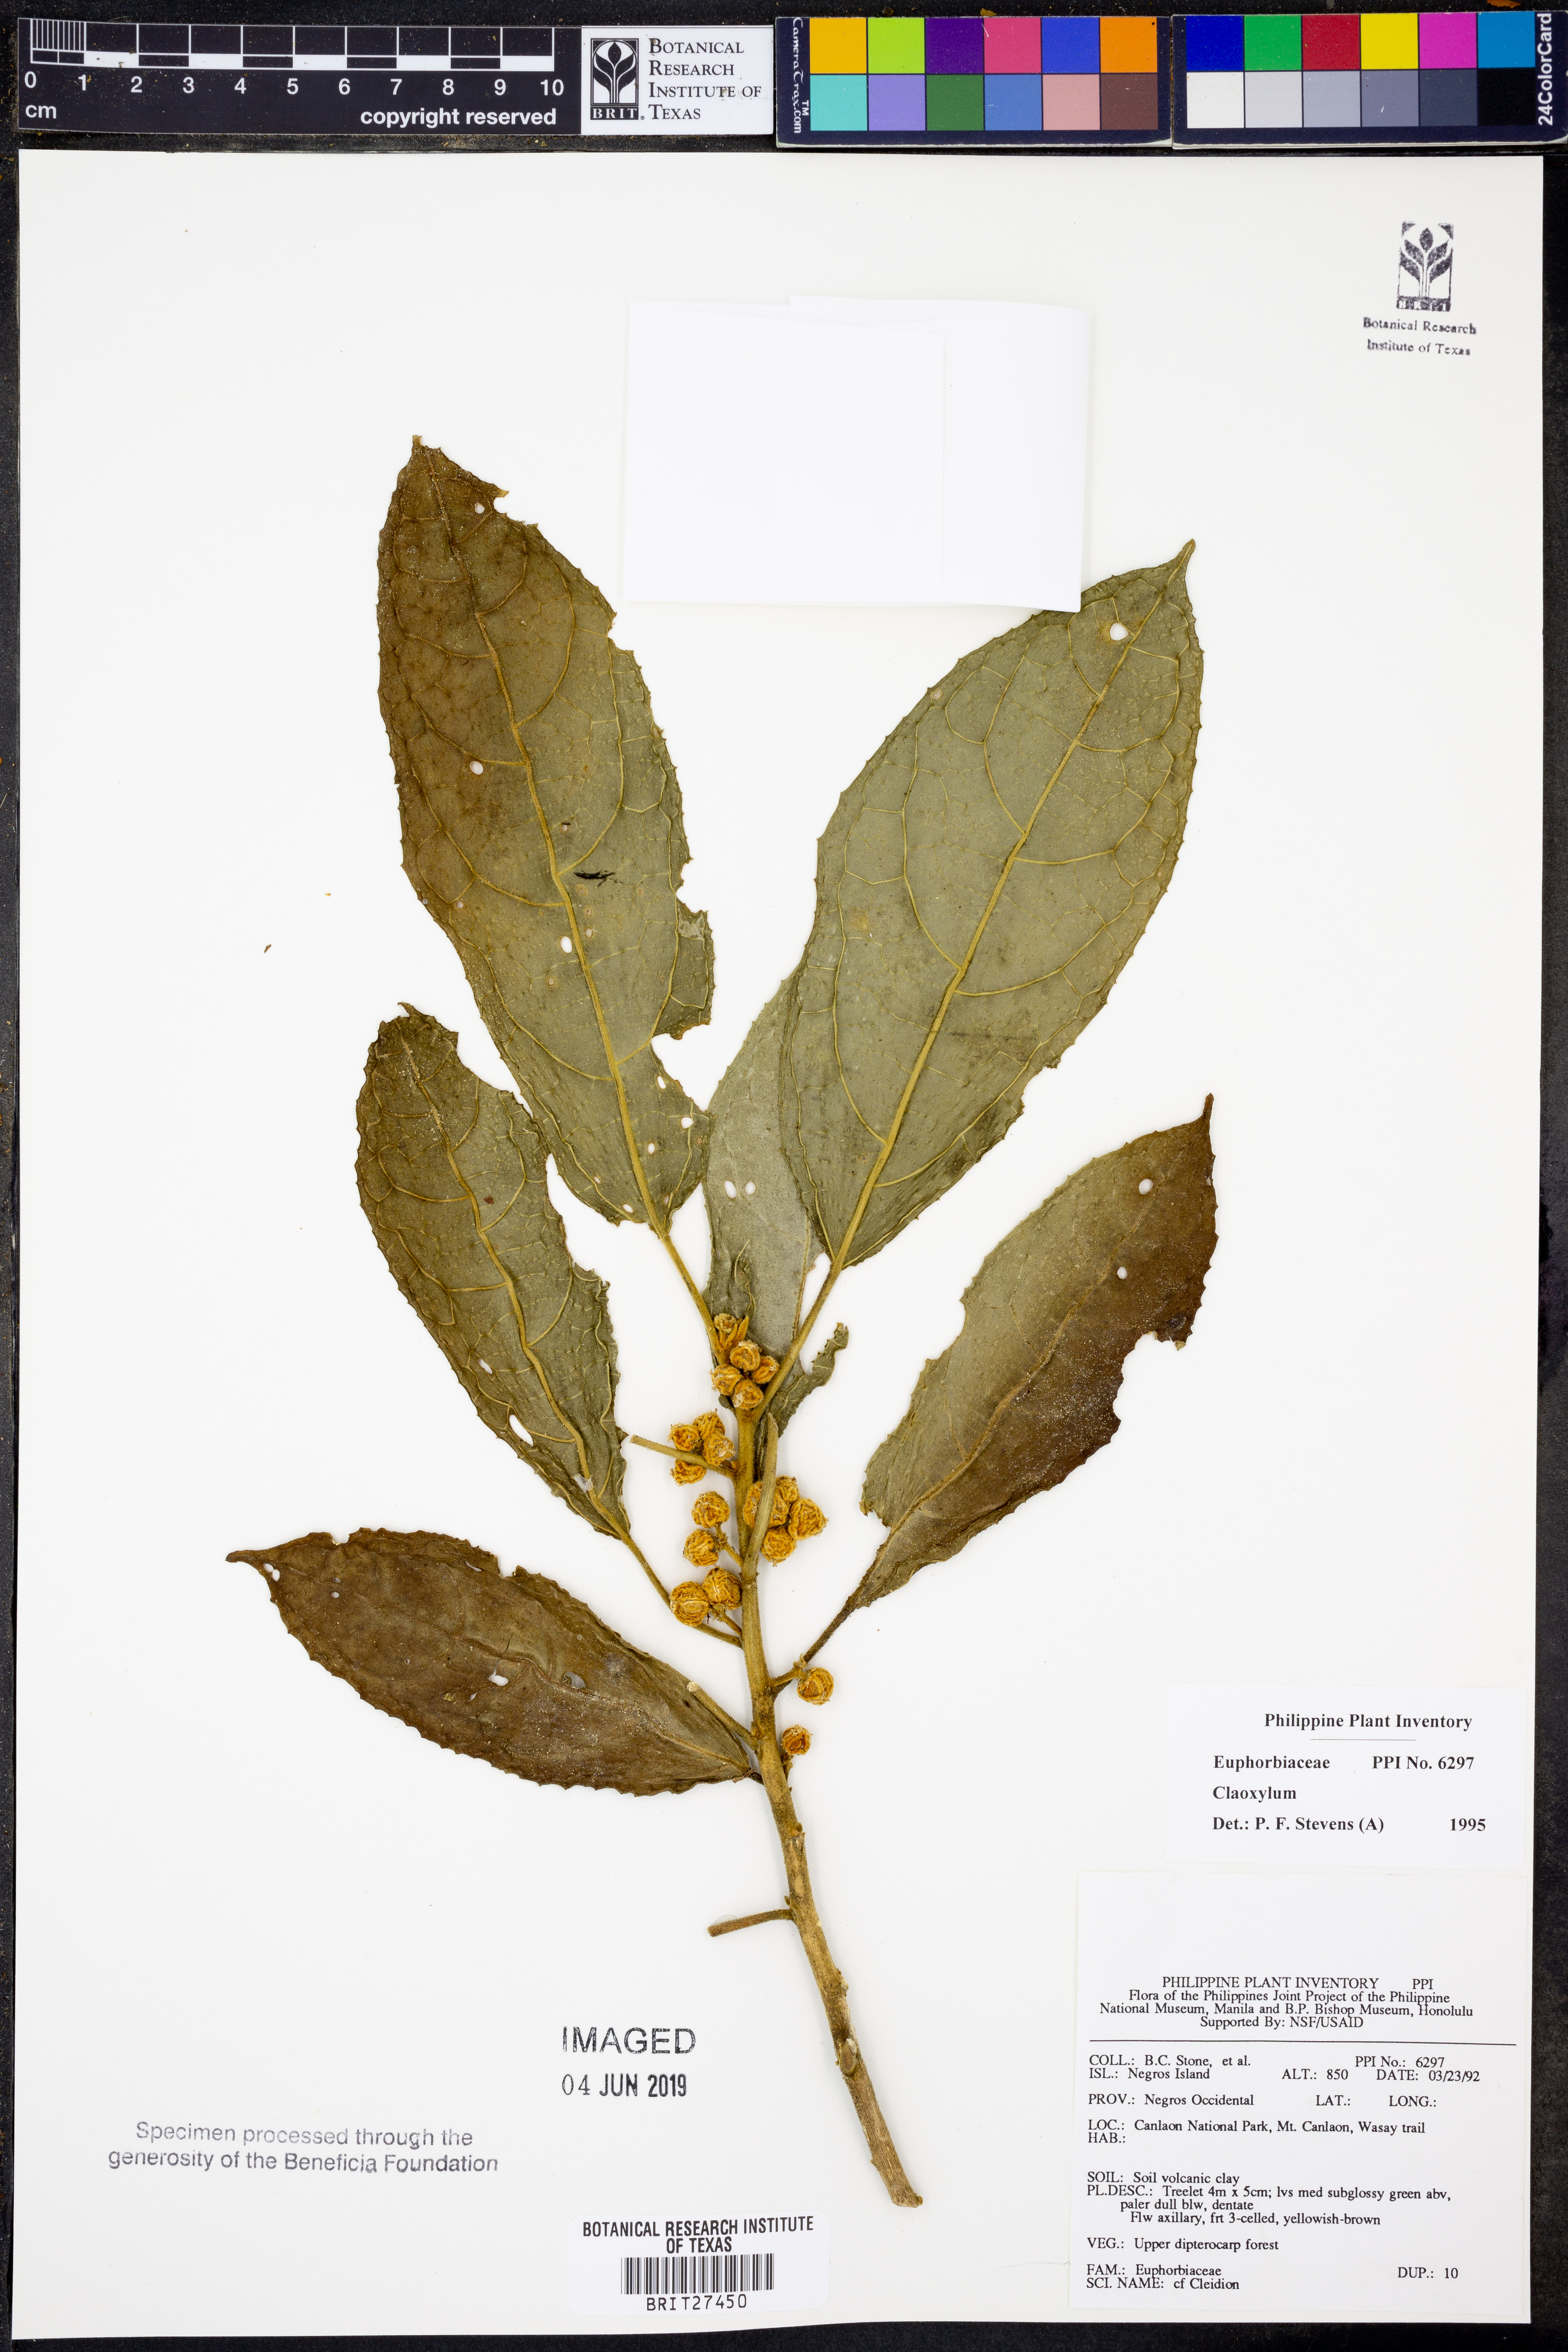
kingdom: Plantae
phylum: Tracheophyta
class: Magnoliopsida
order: Malpighiales
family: Euphorbiaceae
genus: Claoxylon
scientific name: Claoxylon
